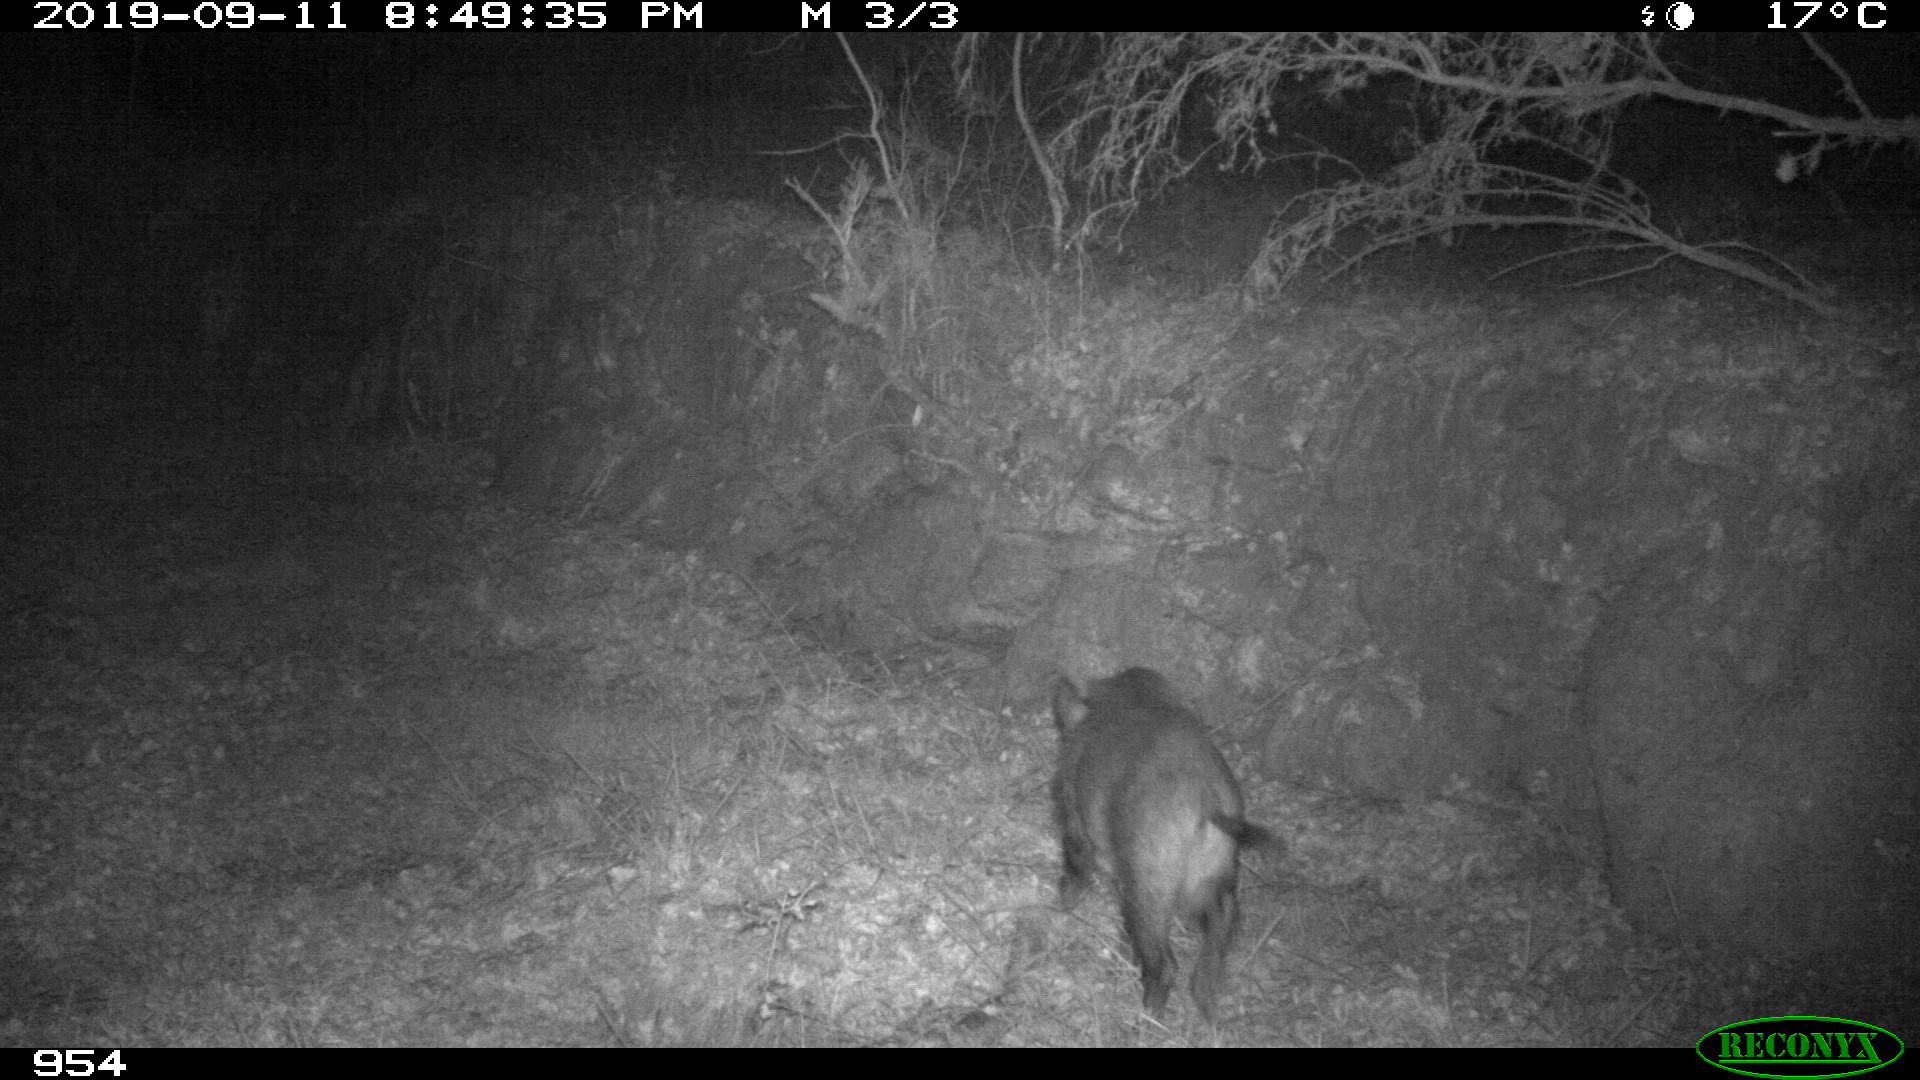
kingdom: Animalia
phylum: Chordata
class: Mammalia
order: Artiodactyla
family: Suidae
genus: Sus
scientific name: Sus scrofa
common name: Wild boar
